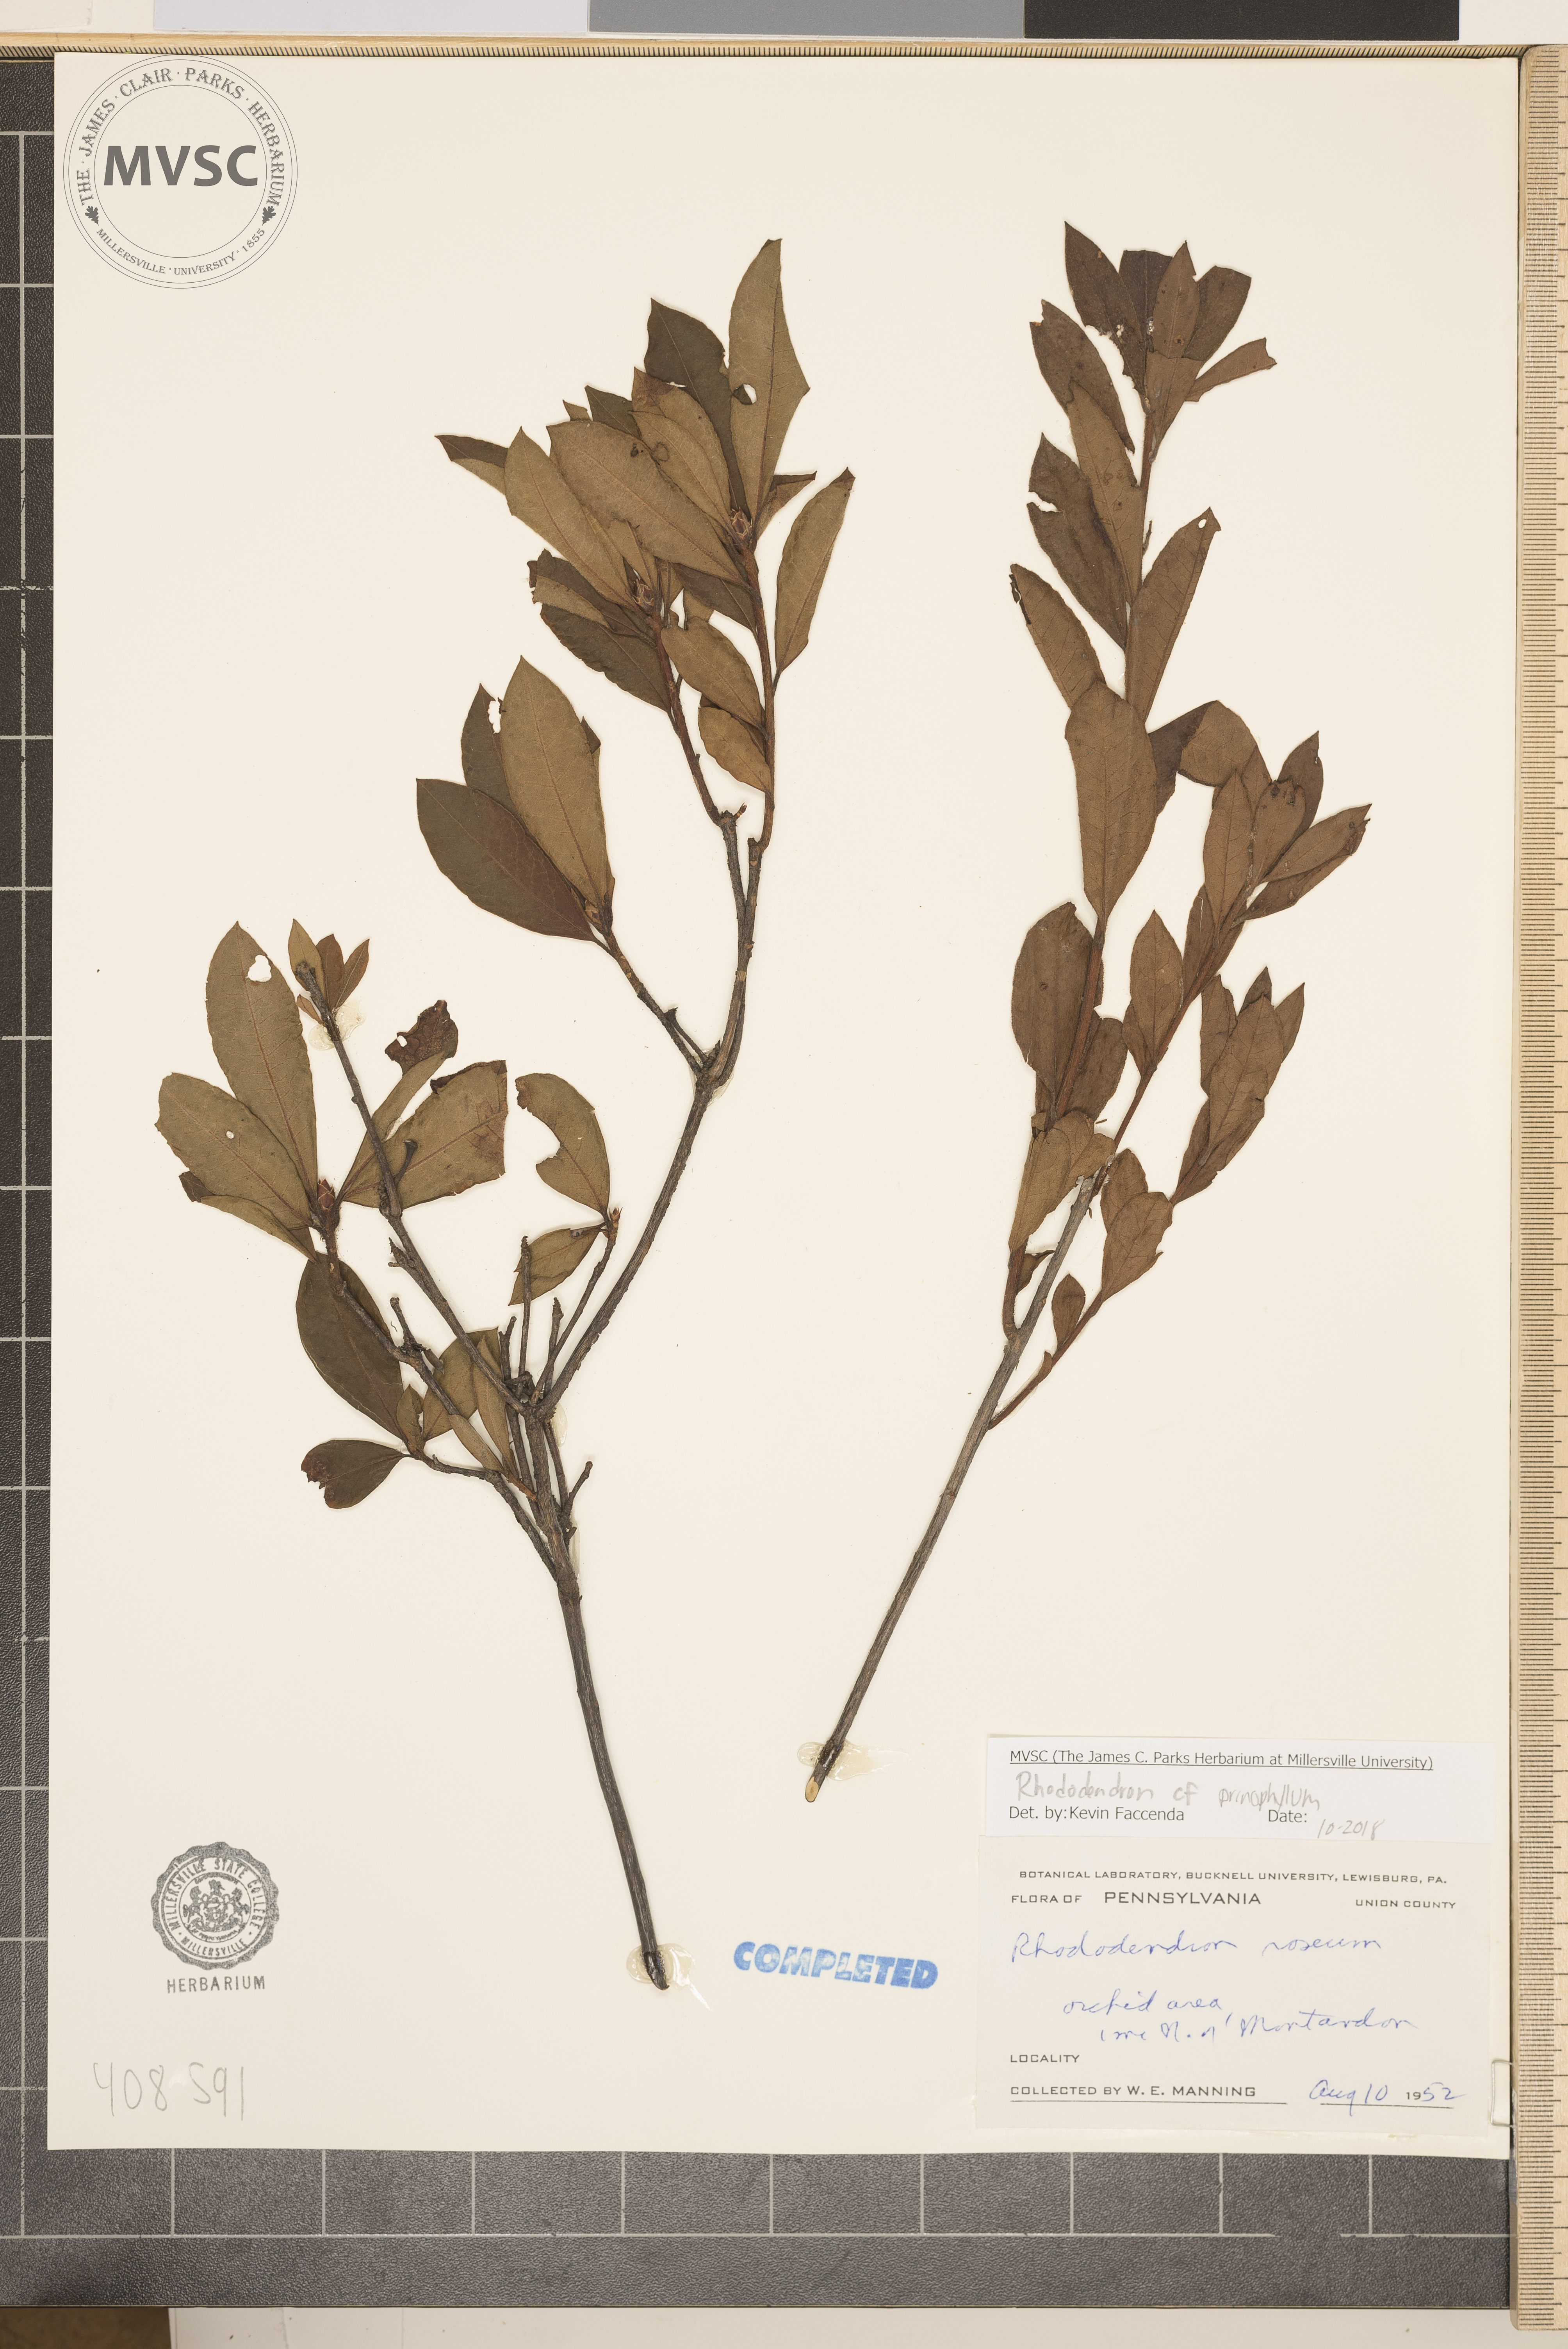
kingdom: Plantae
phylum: Tracheophyta
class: Magnoliopsida
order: Ericales
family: Ericaceae
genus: Rhododendron
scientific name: Rhododendron roseum
